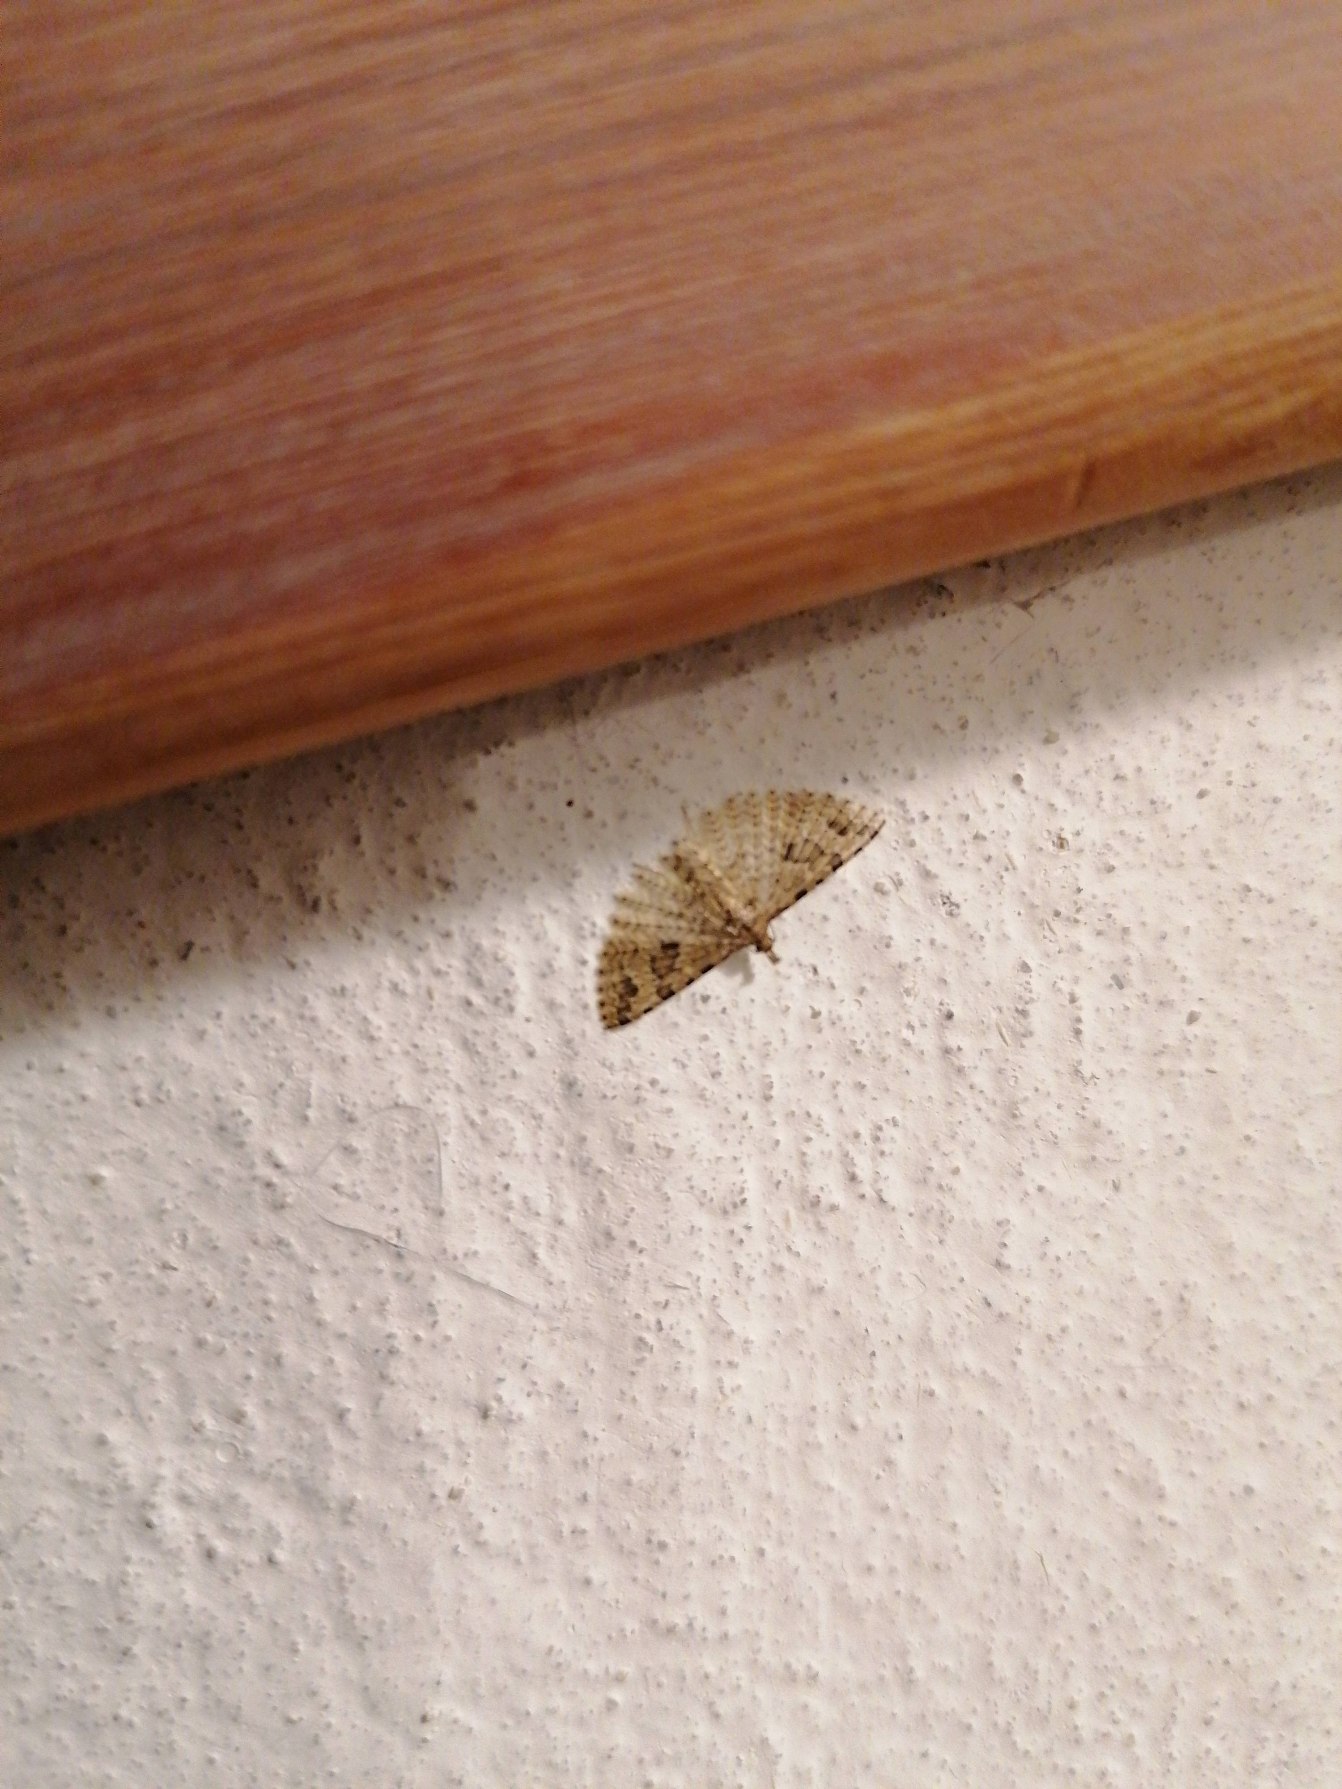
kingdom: Animalia
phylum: Arthropoda
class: Insecta
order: Lepidoptera
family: Alucitidae
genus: Alucita
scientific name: Alucita hexadactyla
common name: Kaprifoliefjermøl
